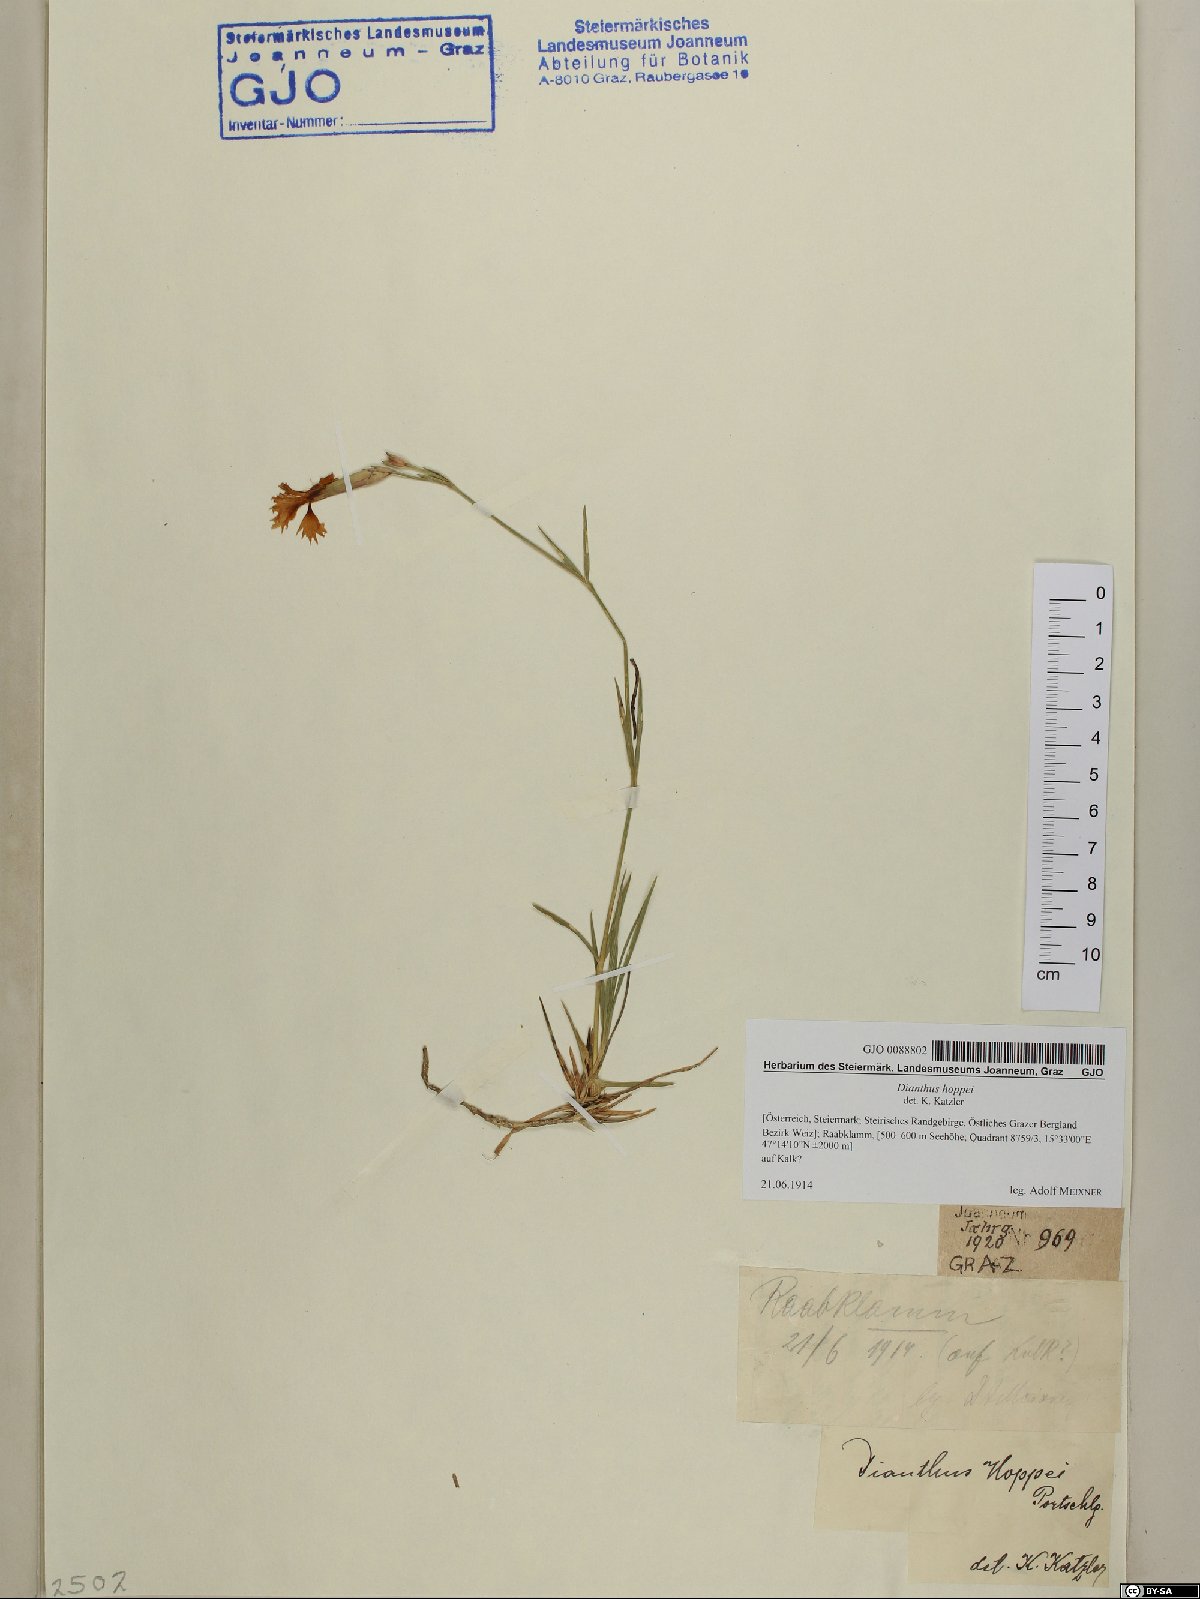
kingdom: Plantae
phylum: Tracheophyta
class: Magnoliopsida
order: Caryophyllales
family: Caryophyllaceae
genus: Dianthus
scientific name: Dianthus plumarius
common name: Pink
